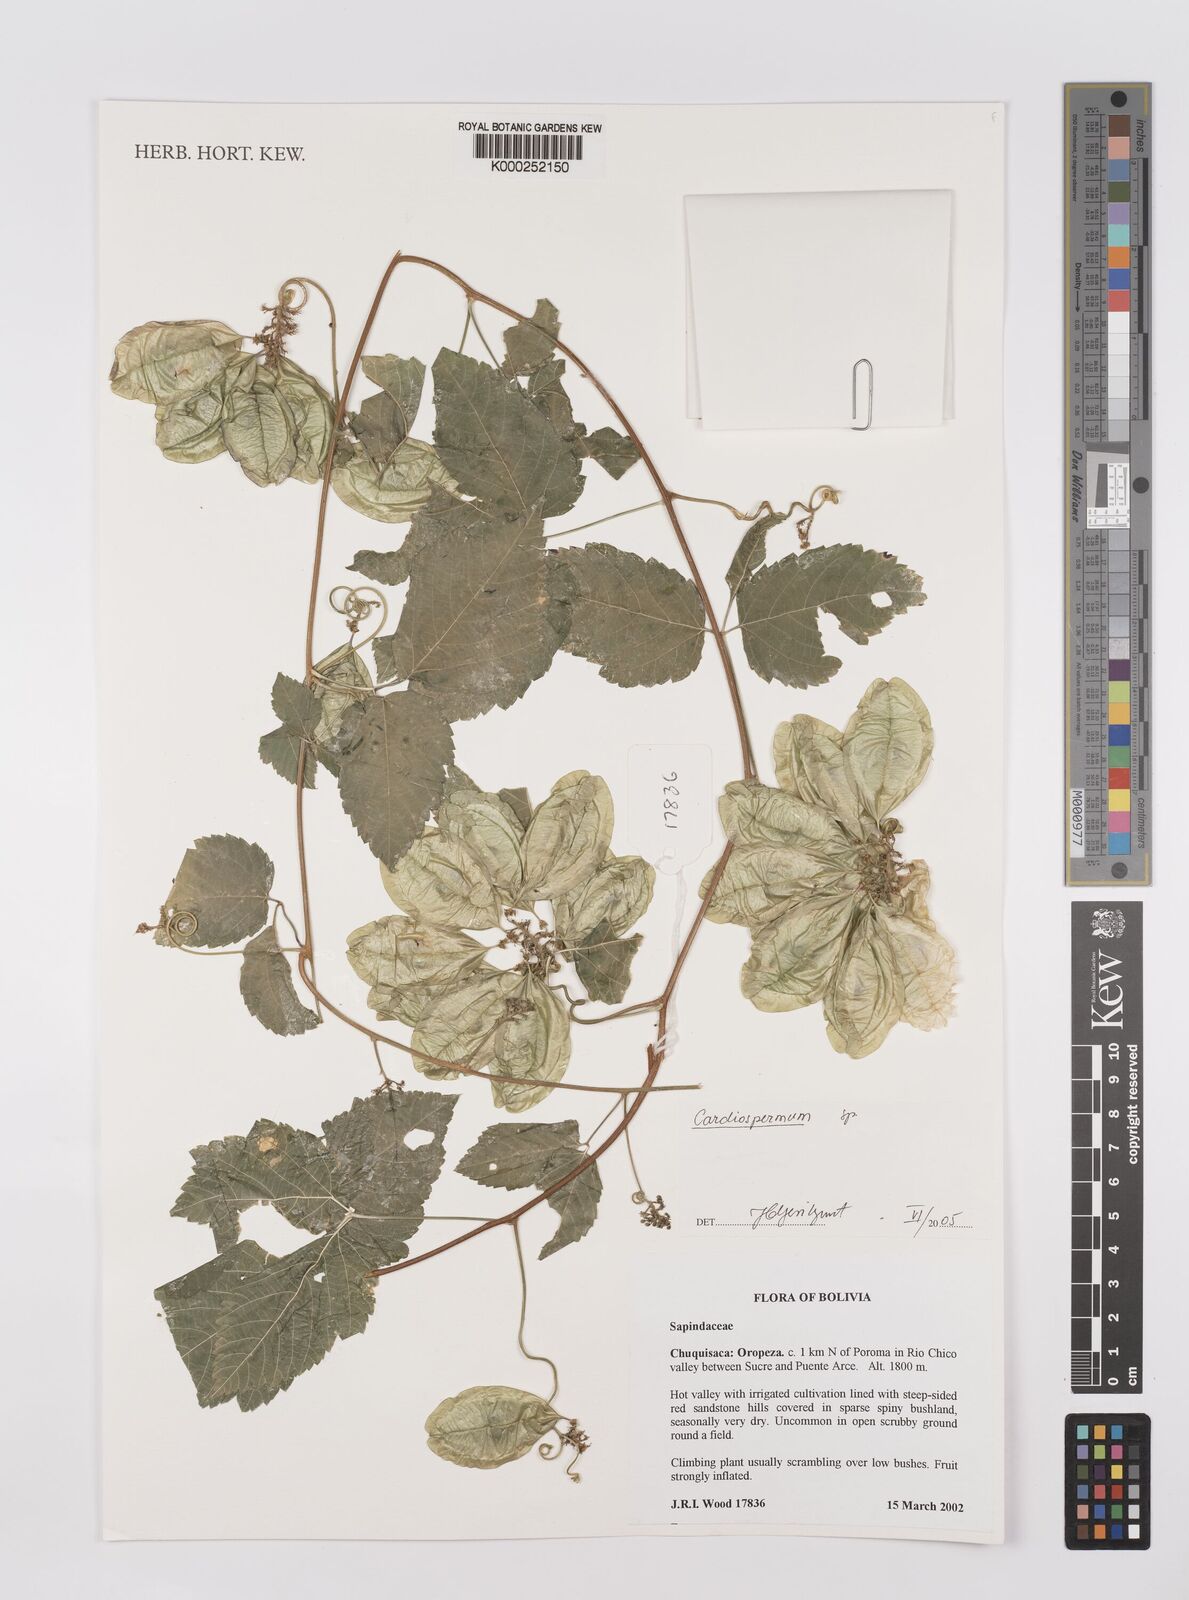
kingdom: Plantae
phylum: Tracheophyta
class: Magnoliopsida
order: Sapindales
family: Sapindaceae
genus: Cardiospermum
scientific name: Cardiospermum
